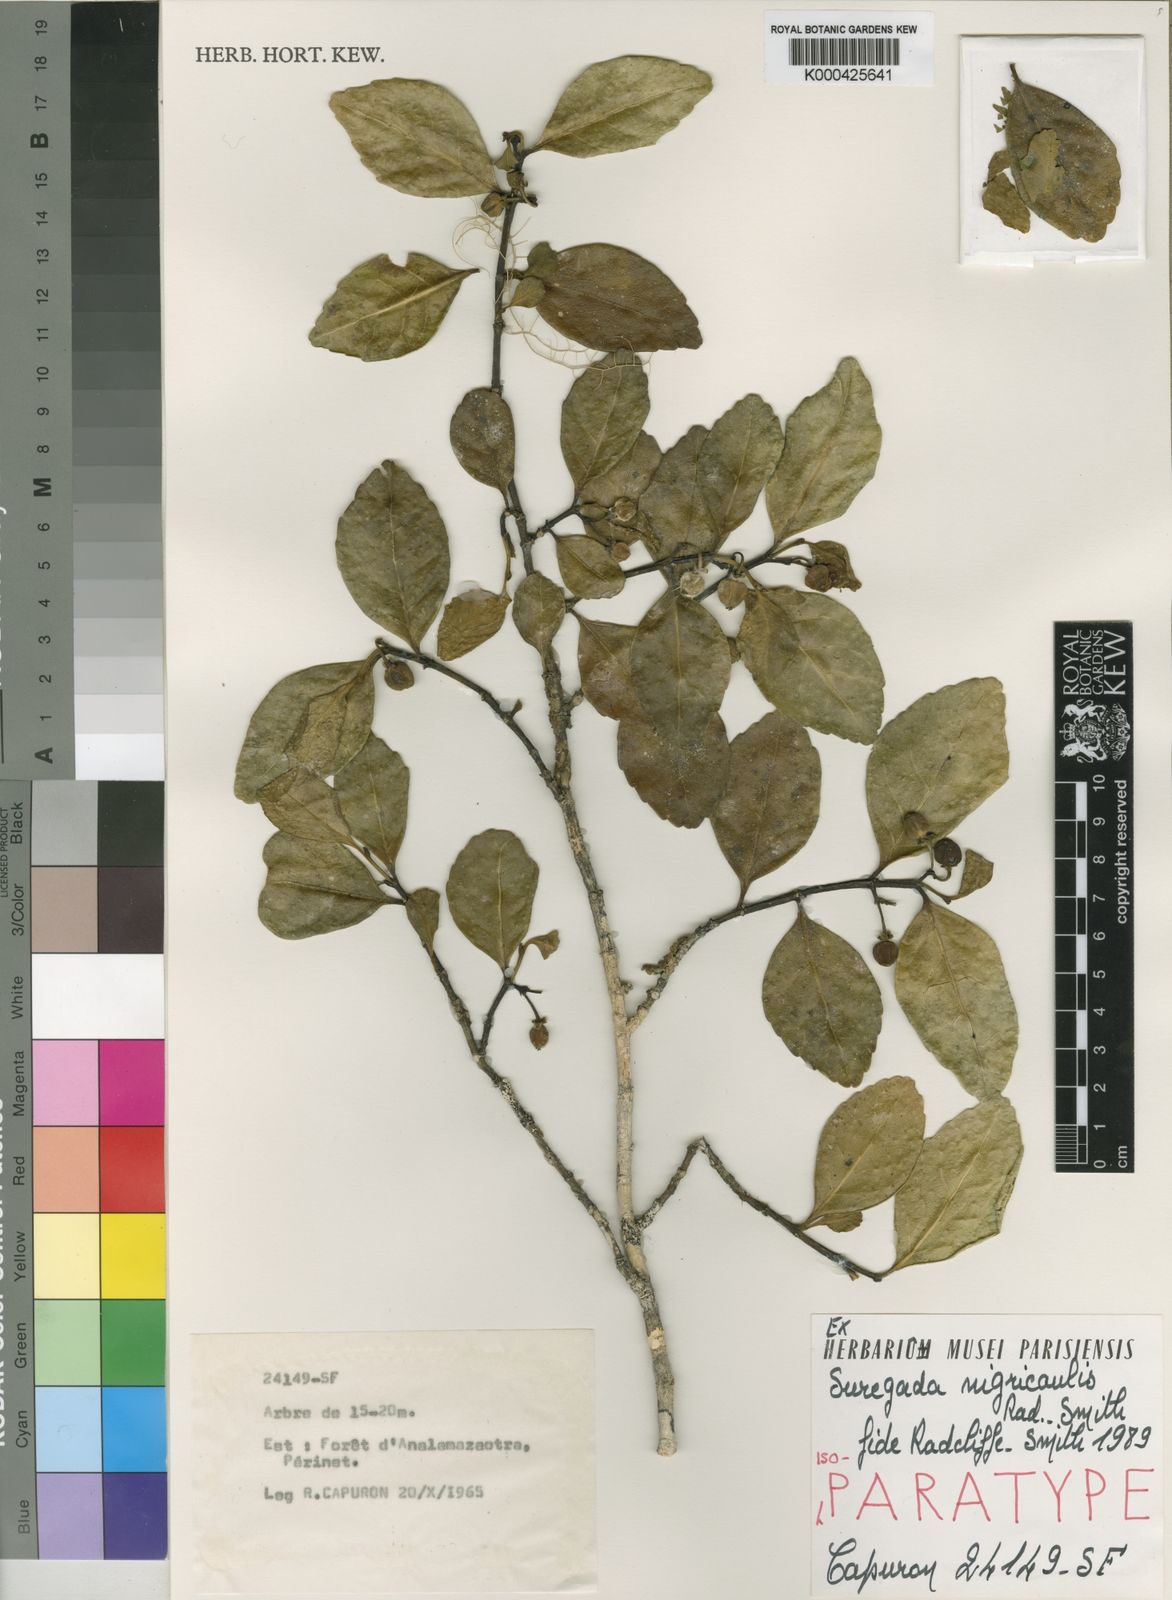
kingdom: Plantae
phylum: Tracheophyta
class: Magnoliopsida
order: Malpighiales
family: Euphorbiaceae
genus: Suregada
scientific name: Suregada nigricaulis
